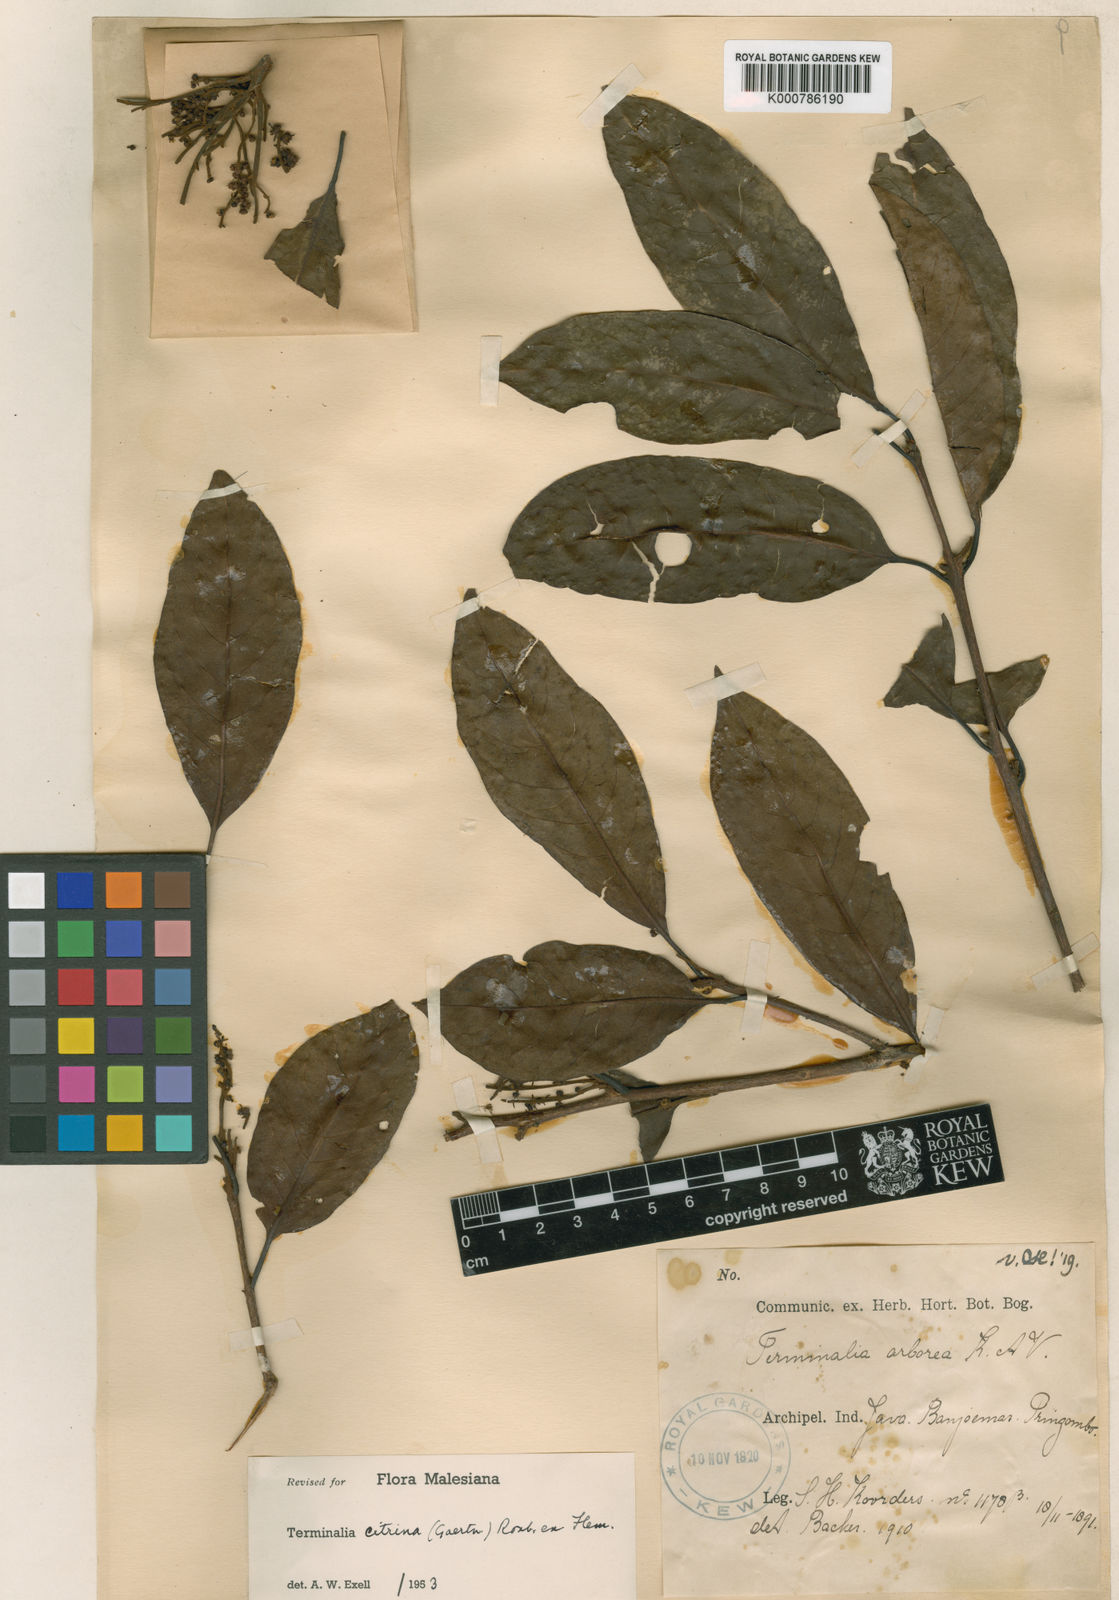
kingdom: Plantae
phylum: Tracheophyta
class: Magnoliopsida
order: Myrtales
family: Combretaceae
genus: Terminalia
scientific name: Terminalia
